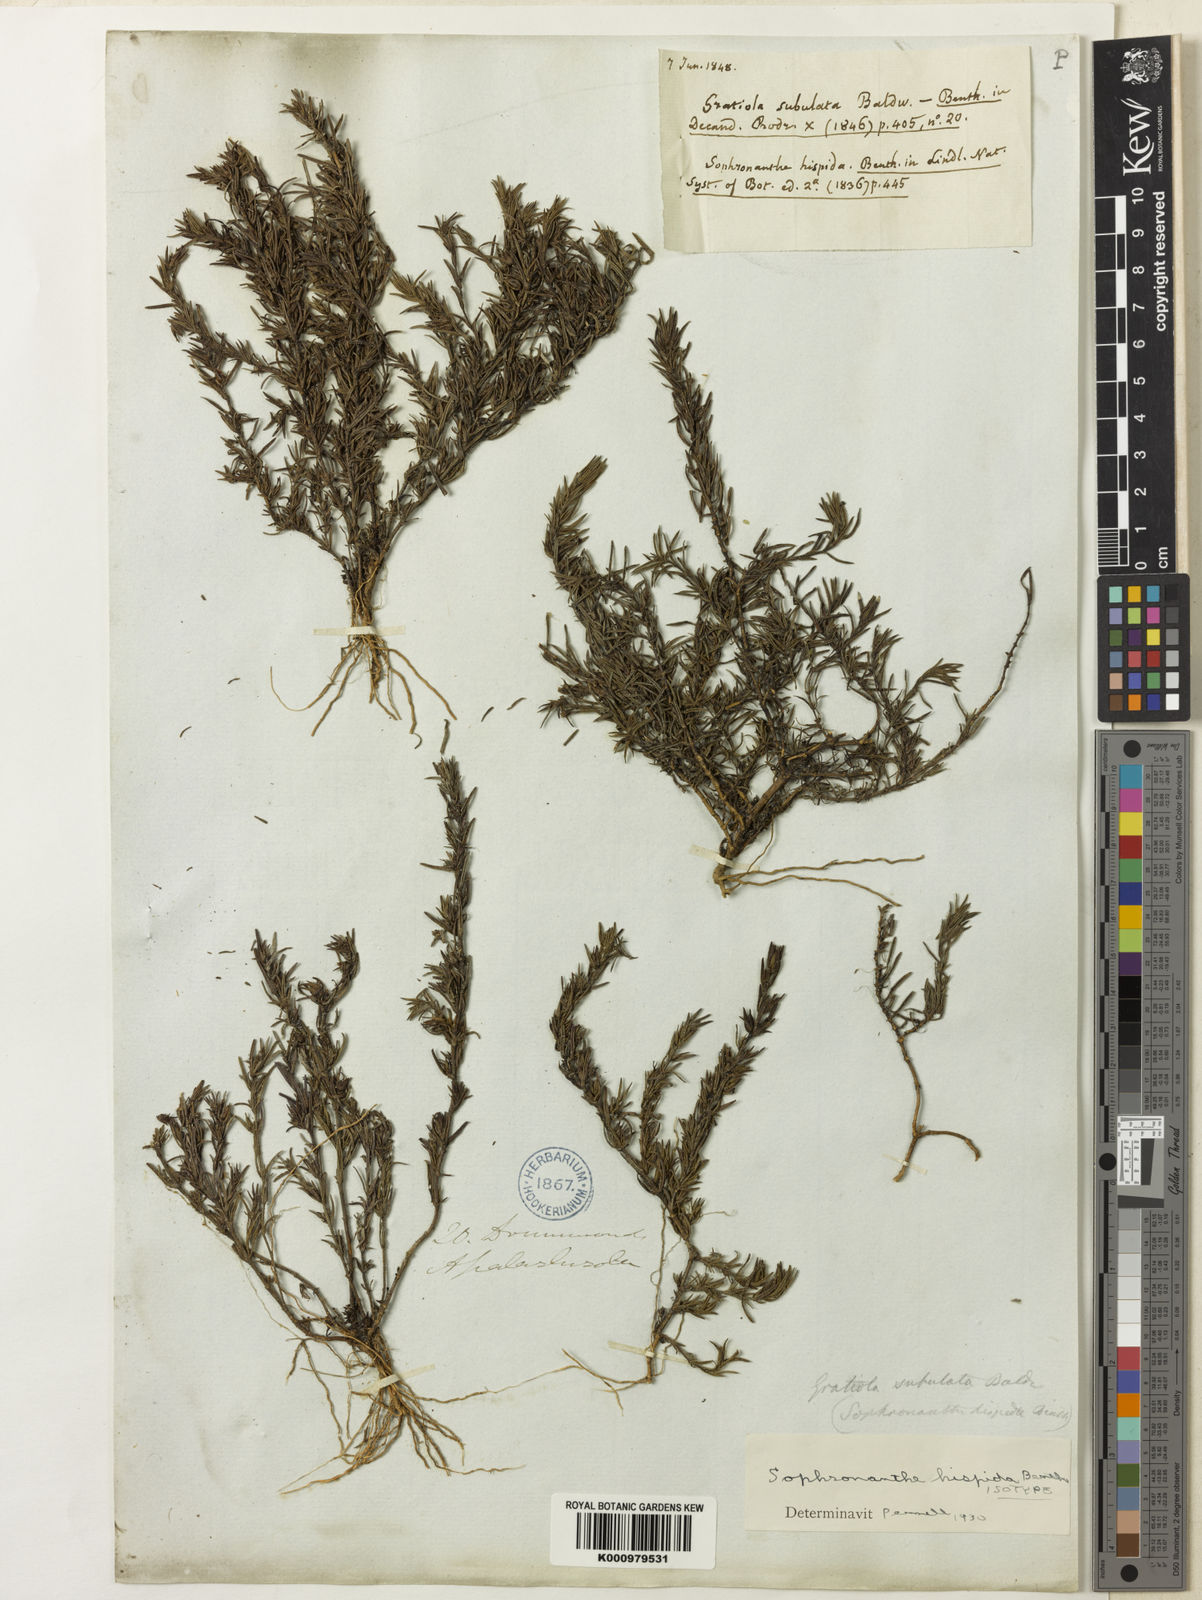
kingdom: Plantae
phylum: Tracheophyta
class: Magnoliopsida
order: Lamiales
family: Plantaginaceae
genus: Gratiola
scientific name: Gratiola hispida
